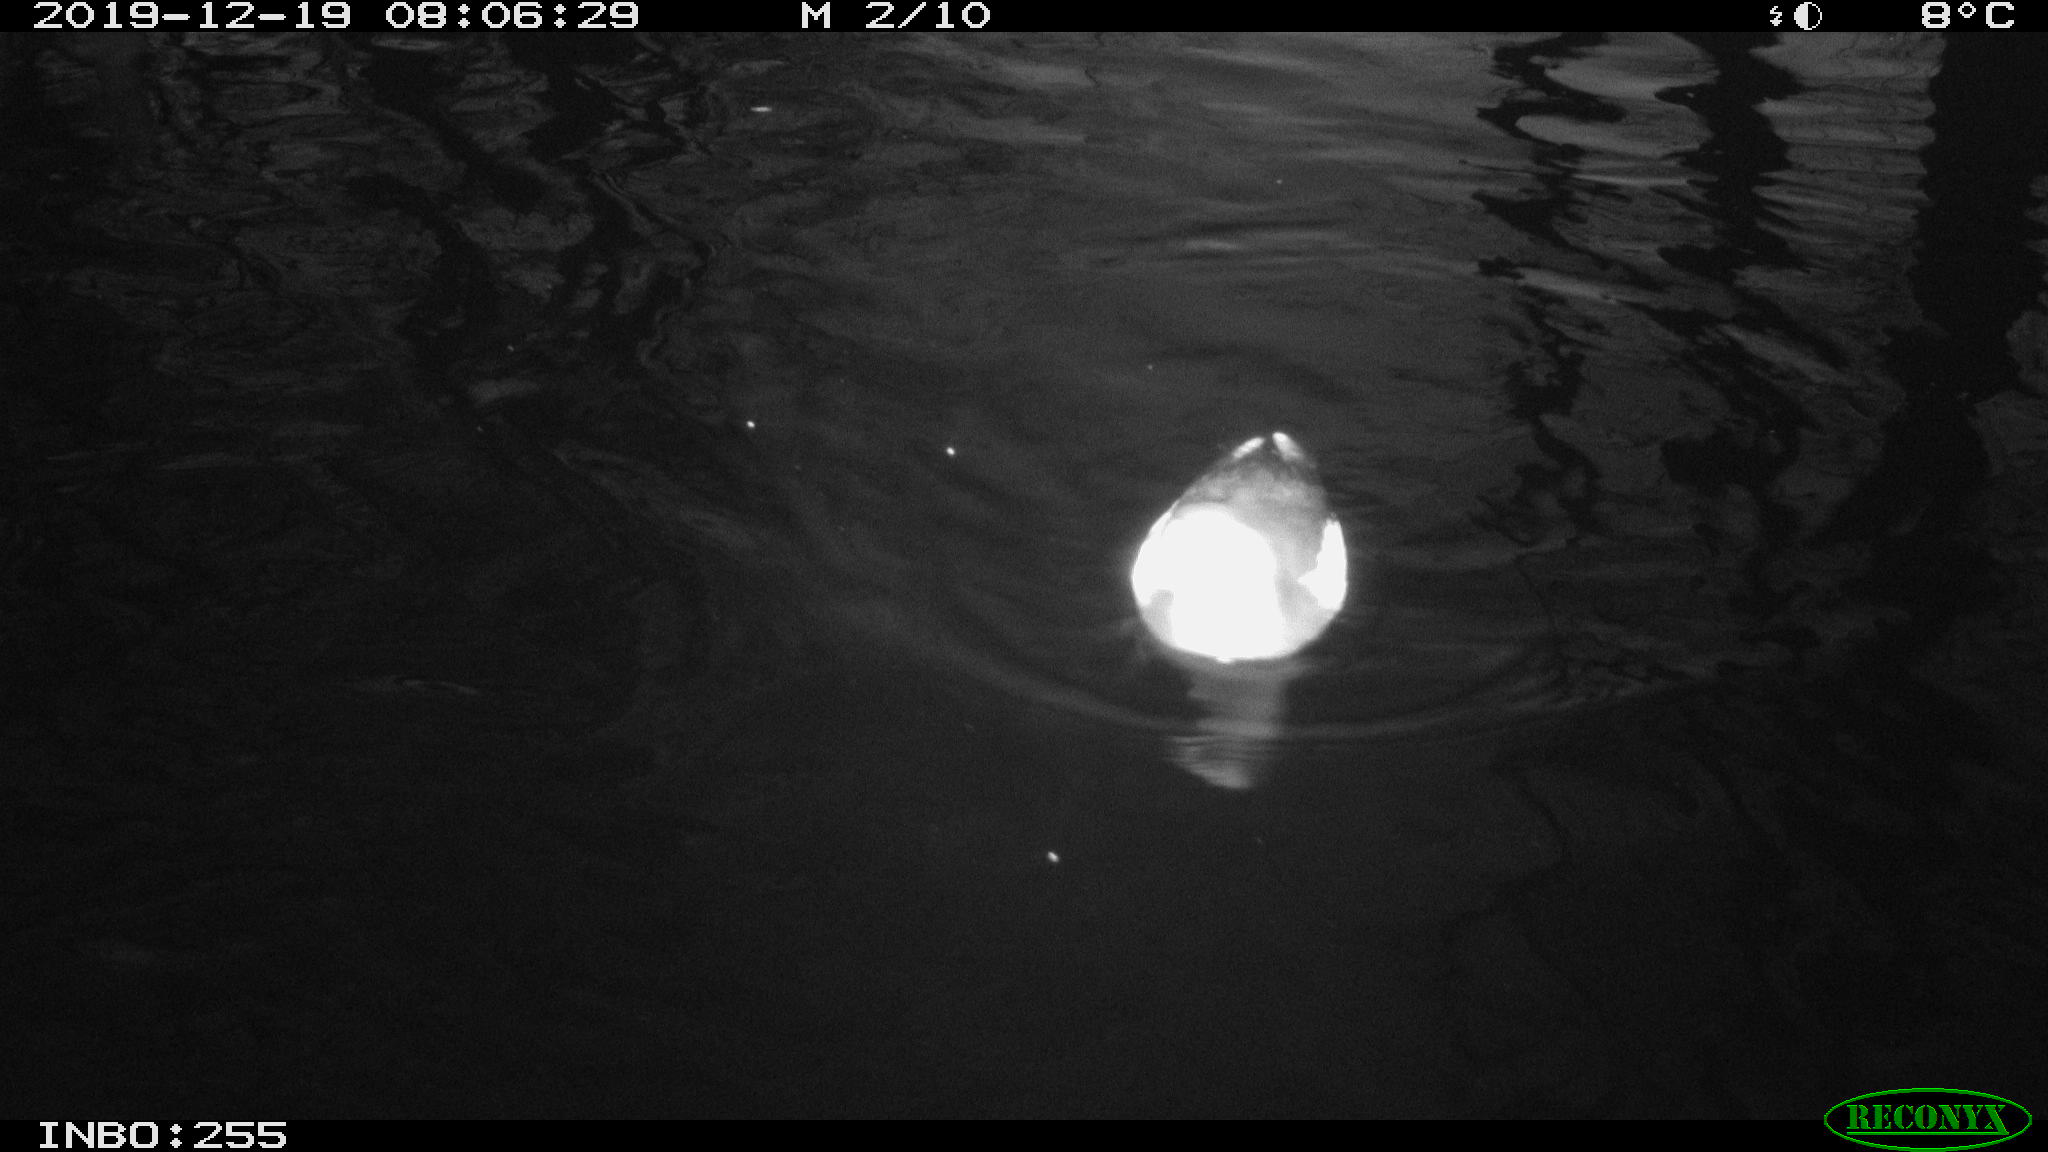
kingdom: Animalia
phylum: Chordata
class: Aves
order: Gruiformes
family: Rallidae
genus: Gallinula
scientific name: Gallinula chloropus
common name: Common moorhen
